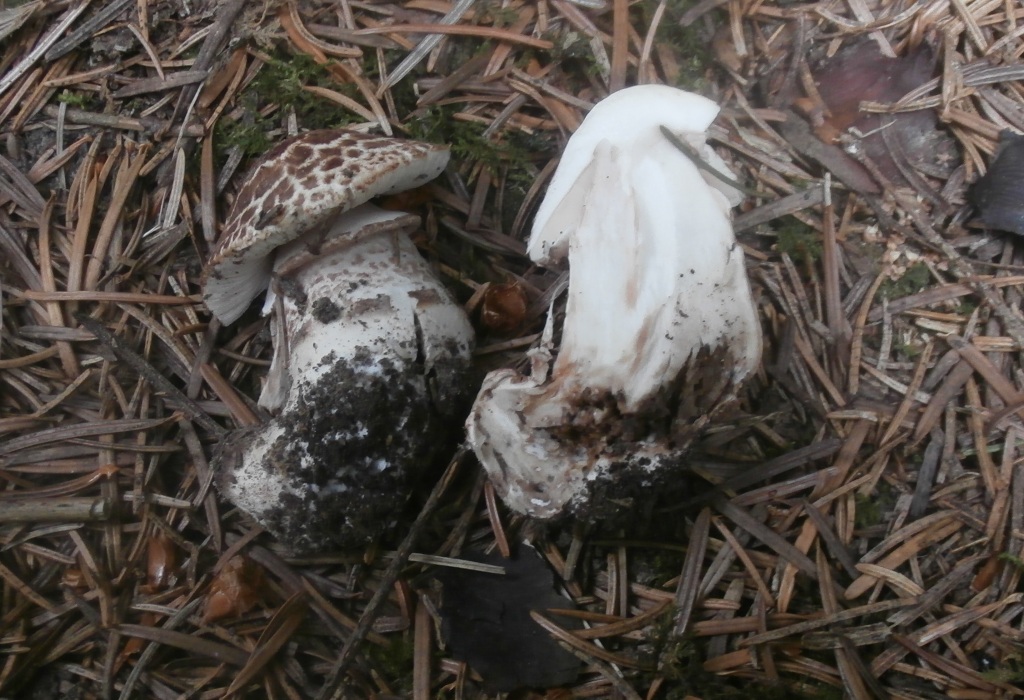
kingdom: Fungi
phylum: Basidiomycota
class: Agaricomycetes
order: Agaricales
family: Agaricaceae
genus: Agaricus
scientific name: Agaricus impudicus
